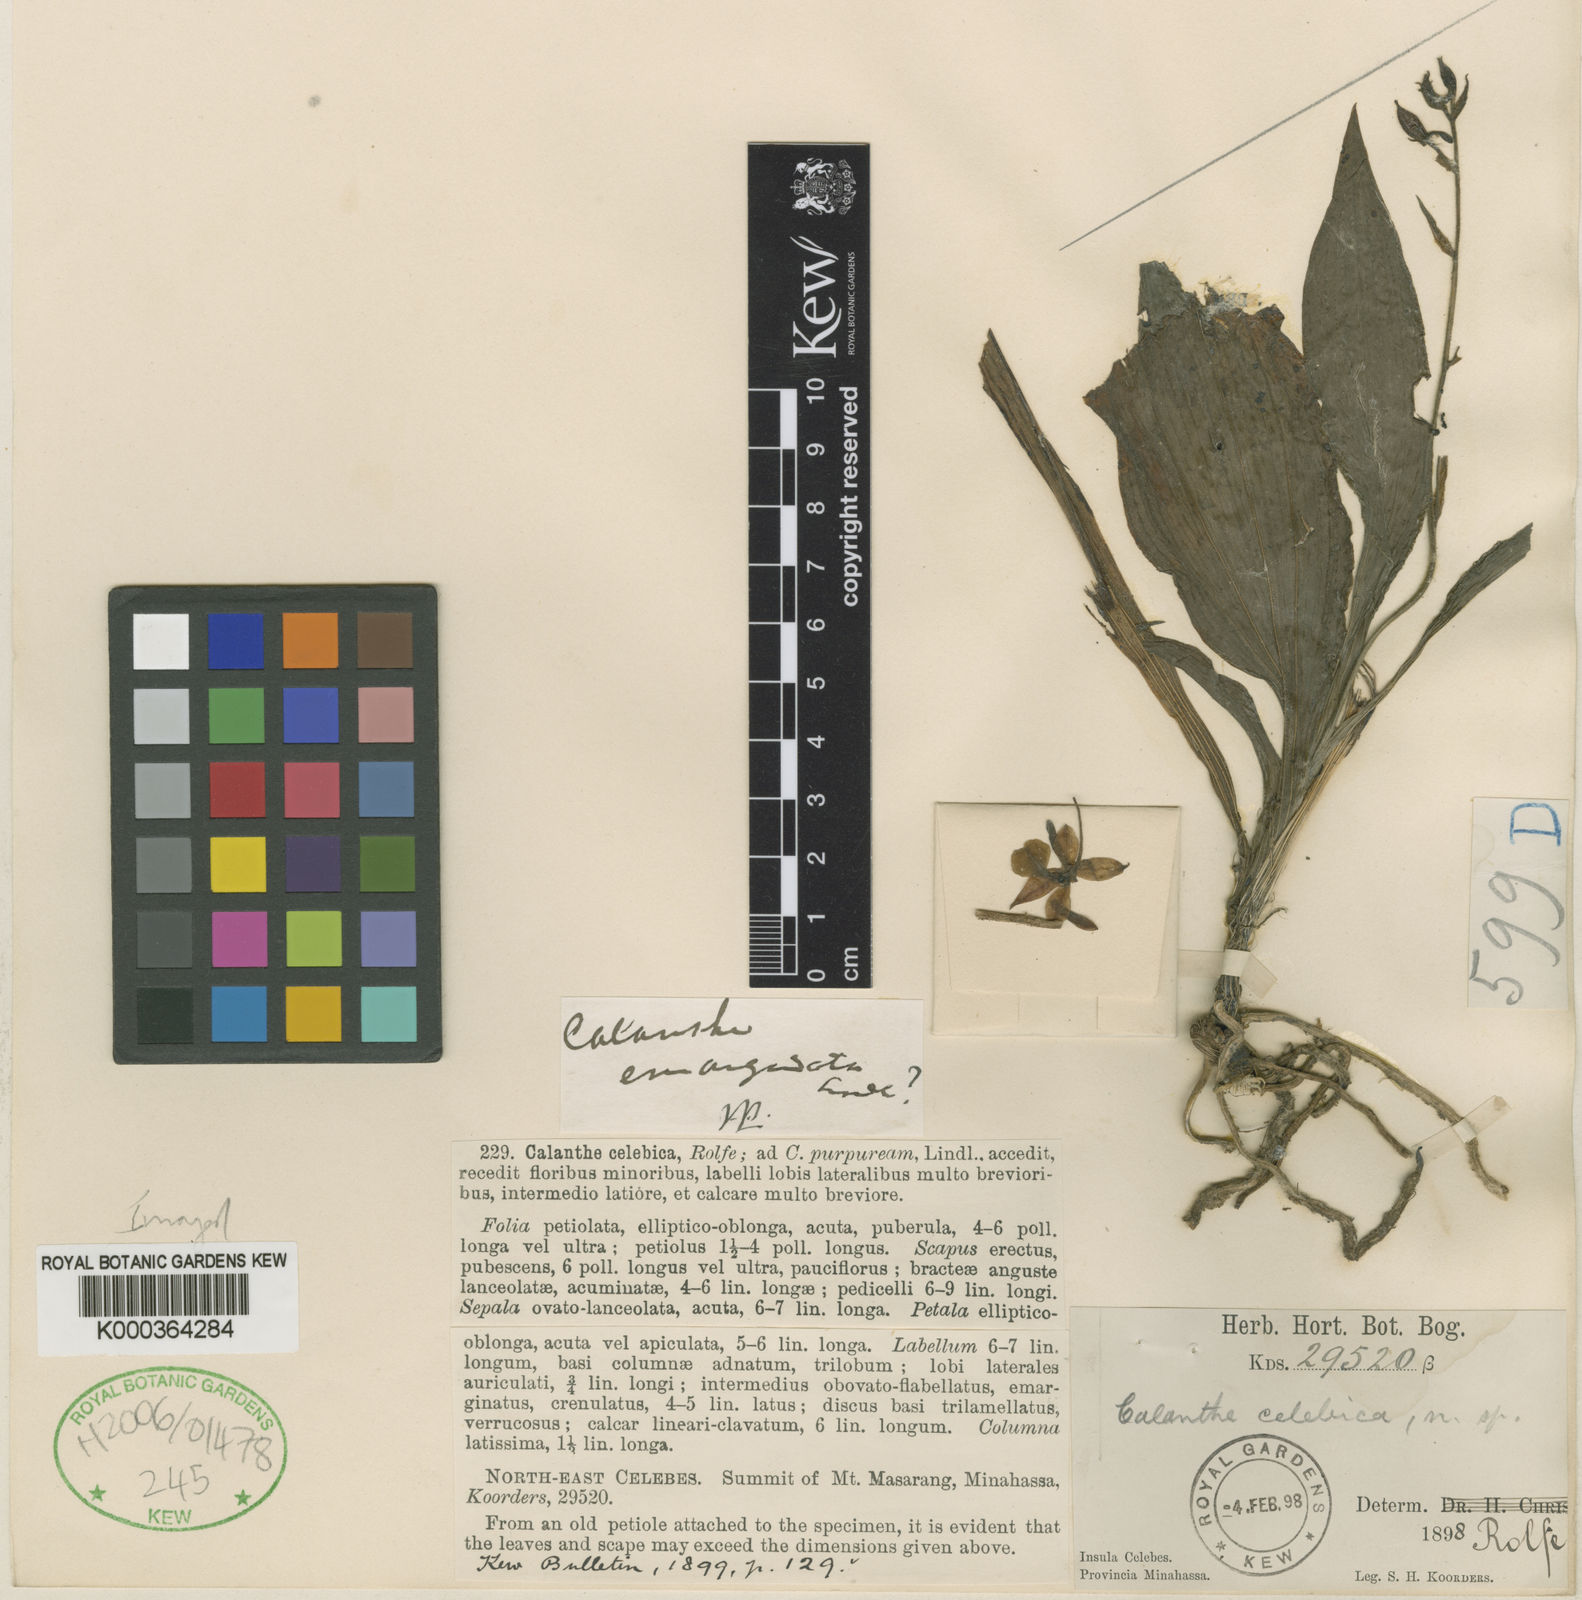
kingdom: Plantae
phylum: Tracheophyta
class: Liliopsida
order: Asparagales
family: Orchidaceae
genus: Calanthe
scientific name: Calanthe celebica
